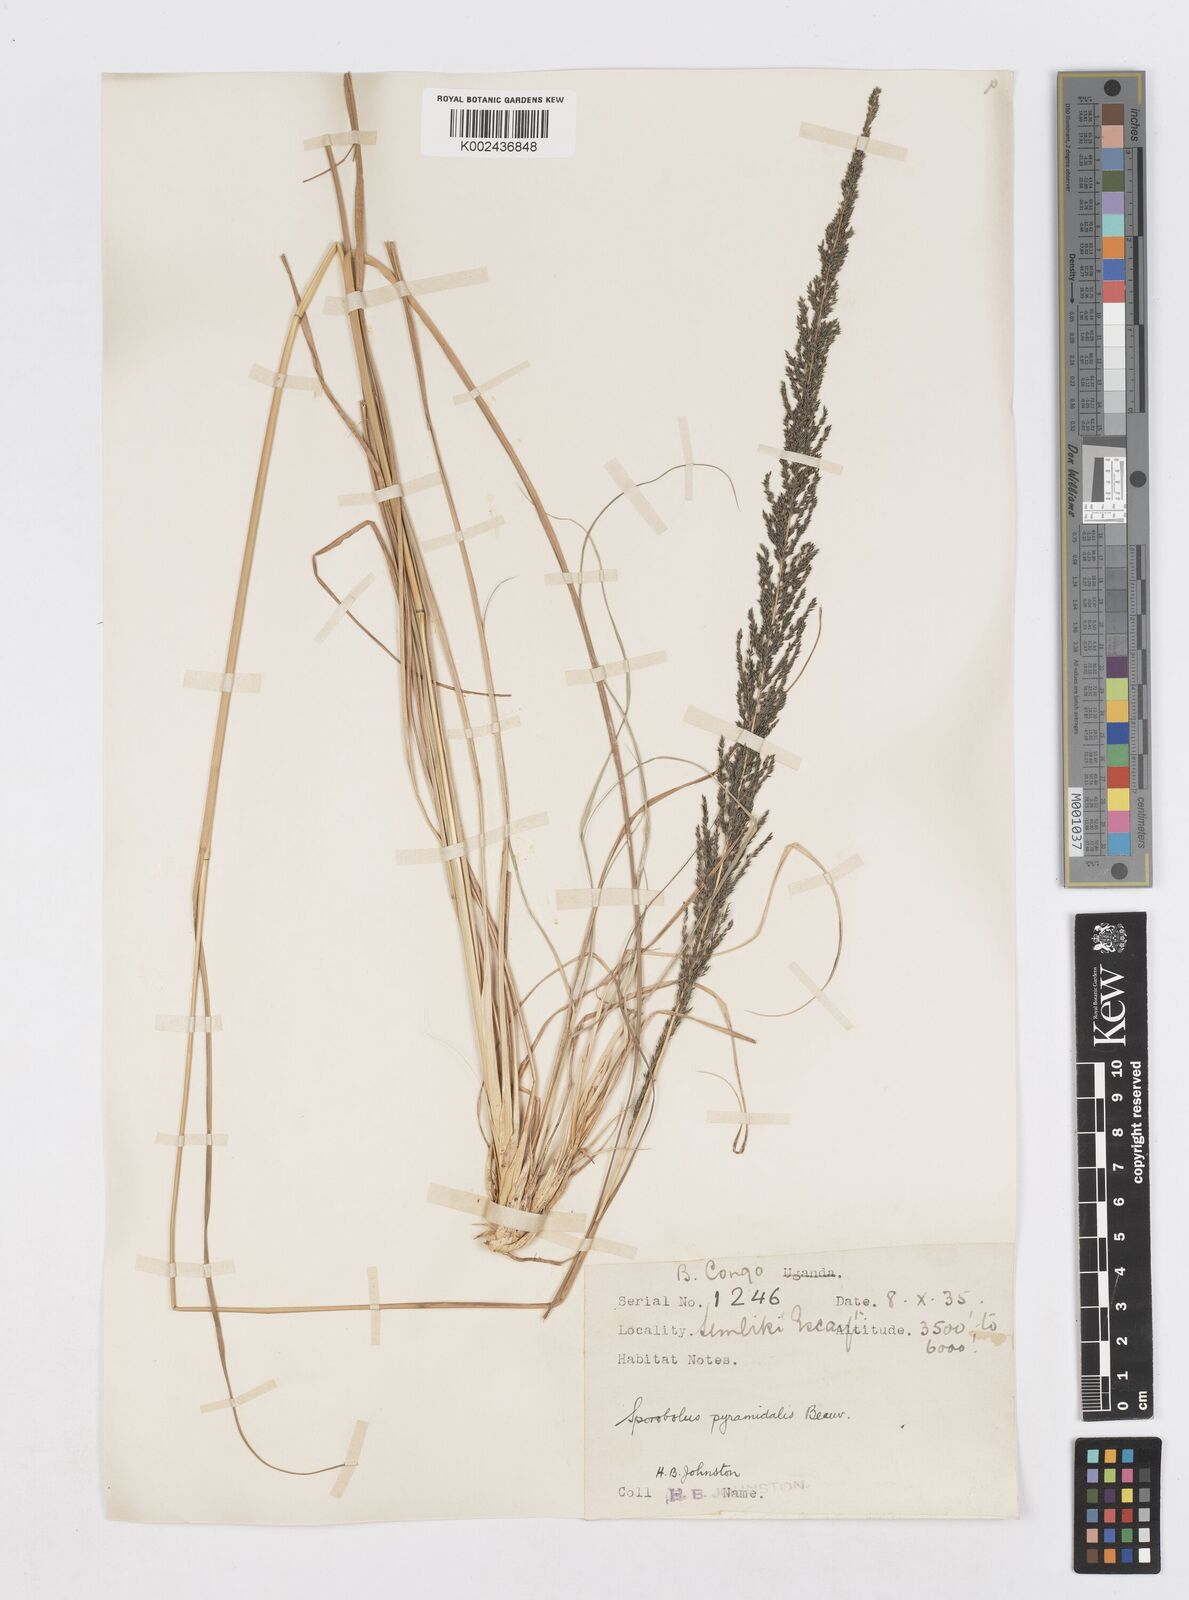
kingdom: Plantae
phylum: Tracheophyta
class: Liliopsida
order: Poales
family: Poaceae
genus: Sporobolus
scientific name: Sporobolus natalensis
